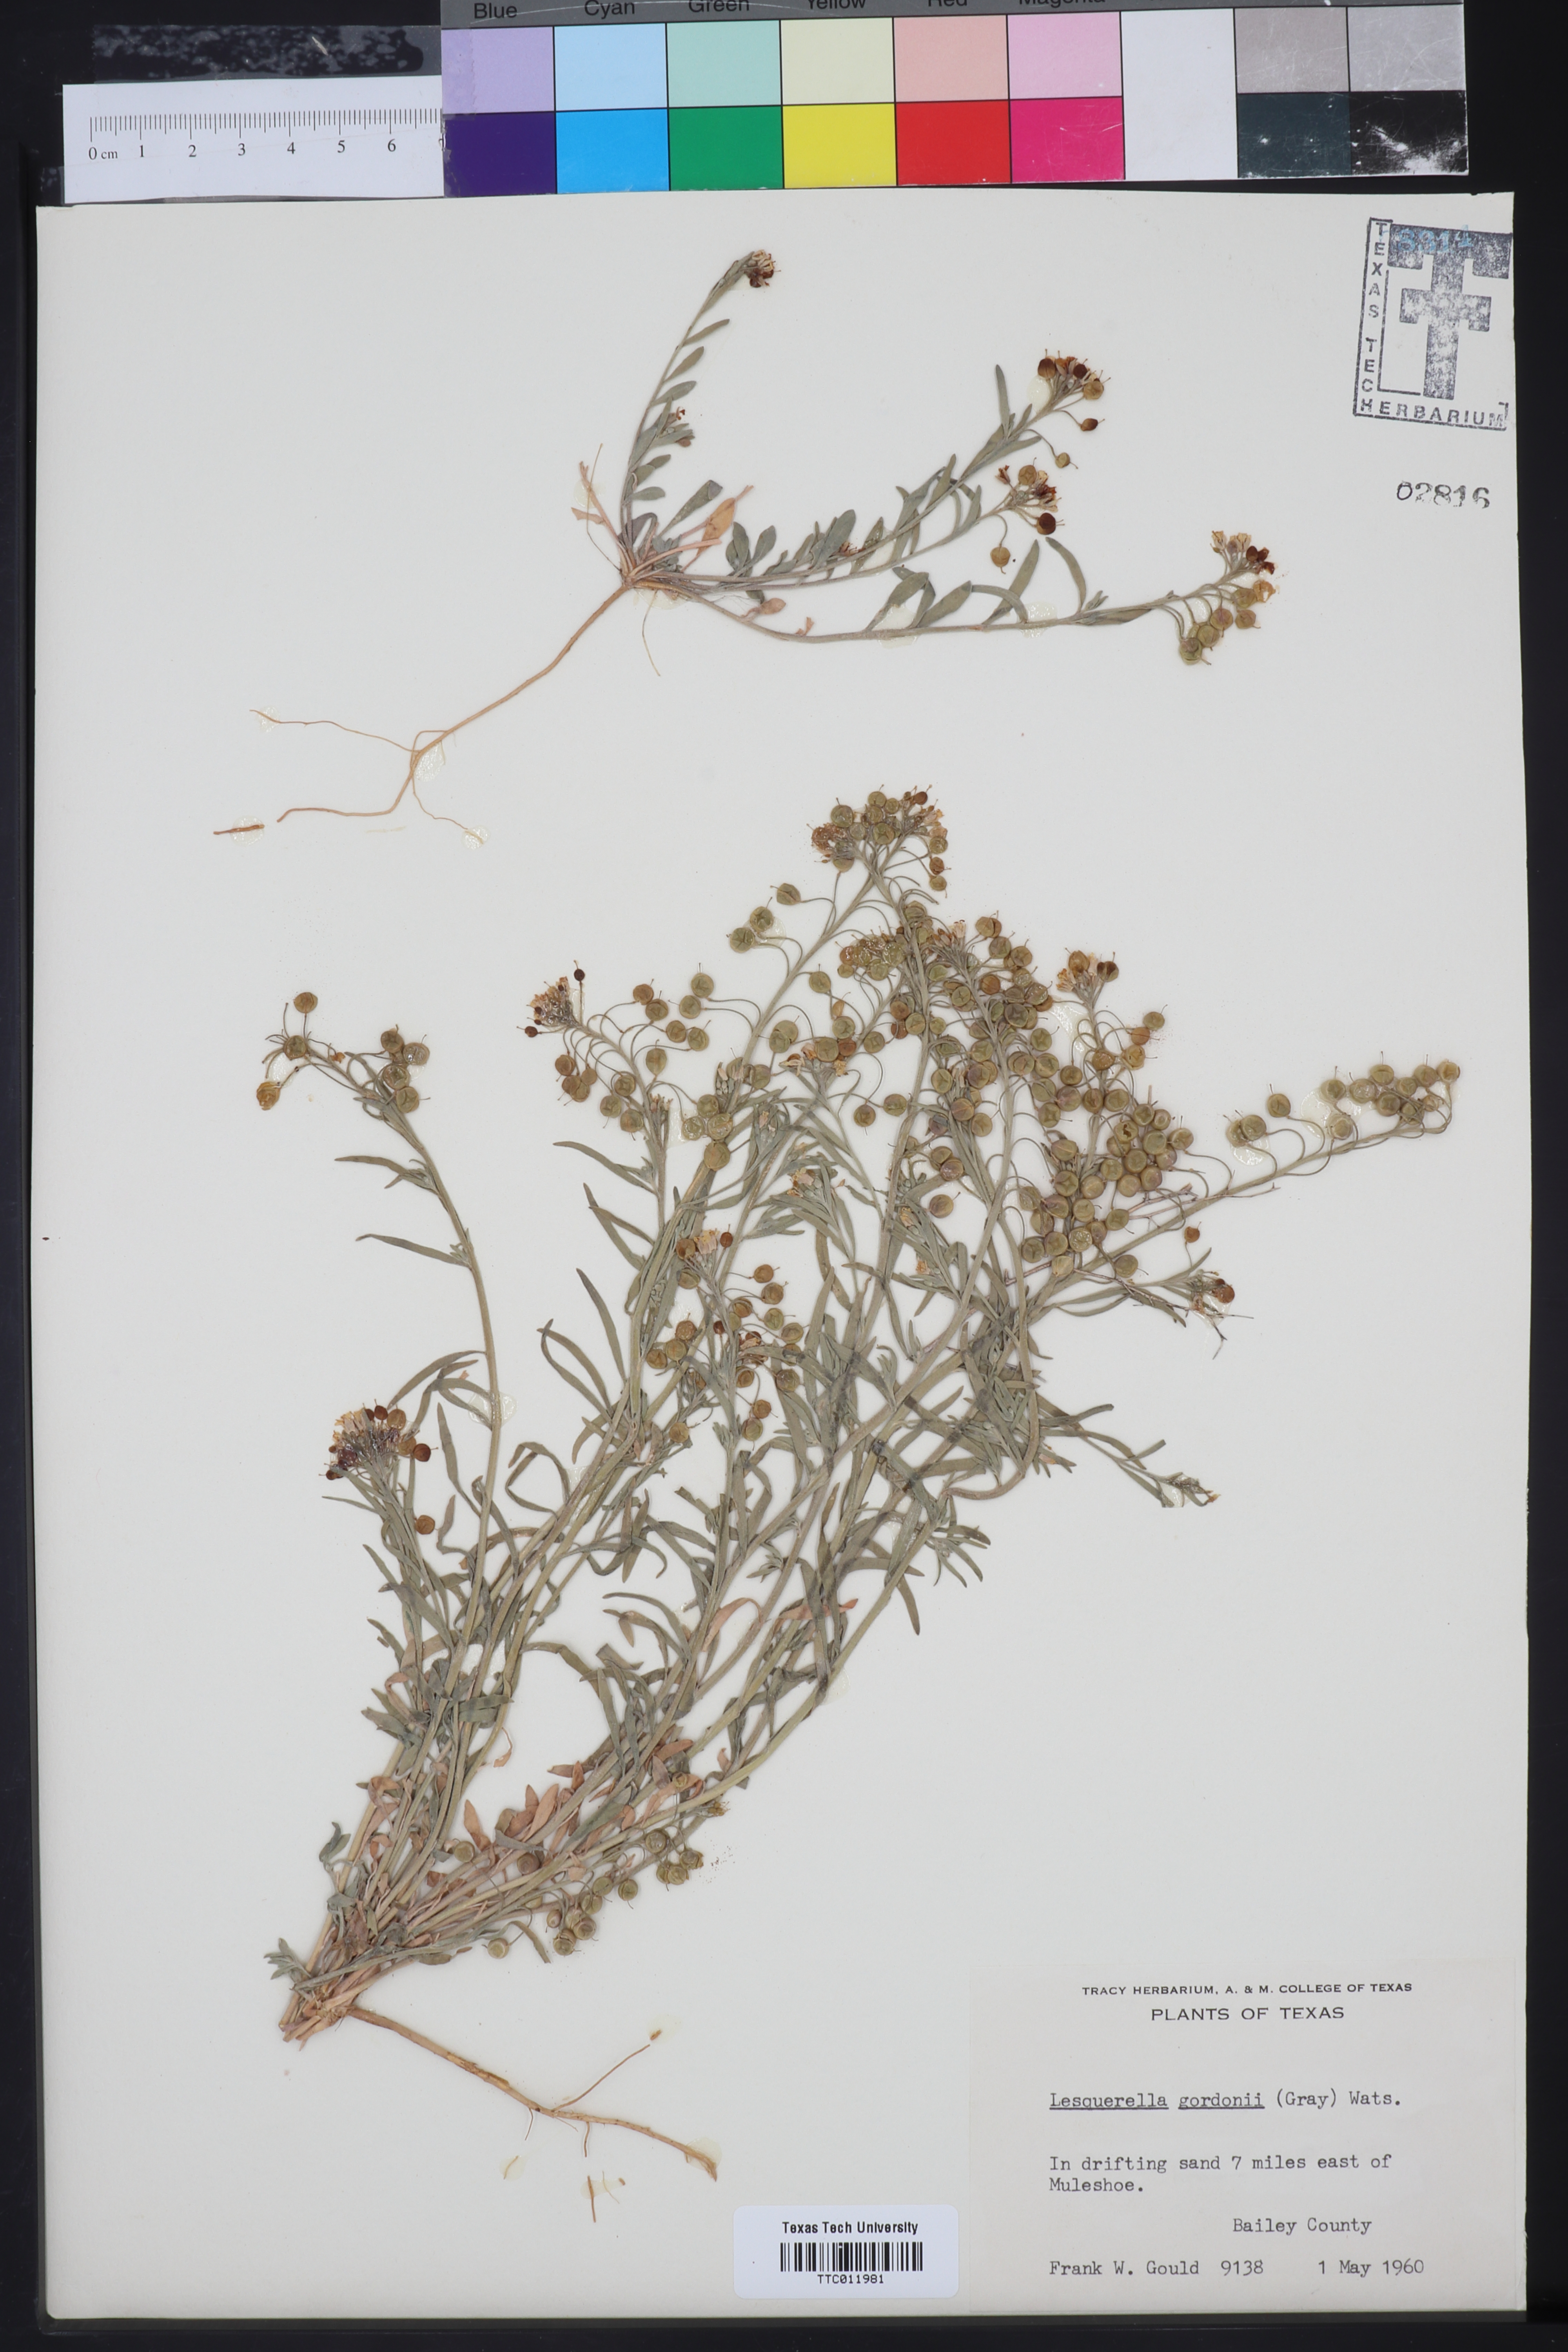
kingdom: Plantae
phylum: Tracheophyta
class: Magnoliopsida
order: Brassicales
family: Brassicaceae
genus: Physaria
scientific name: Physaria gordonii
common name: Gordon's bladderpod
